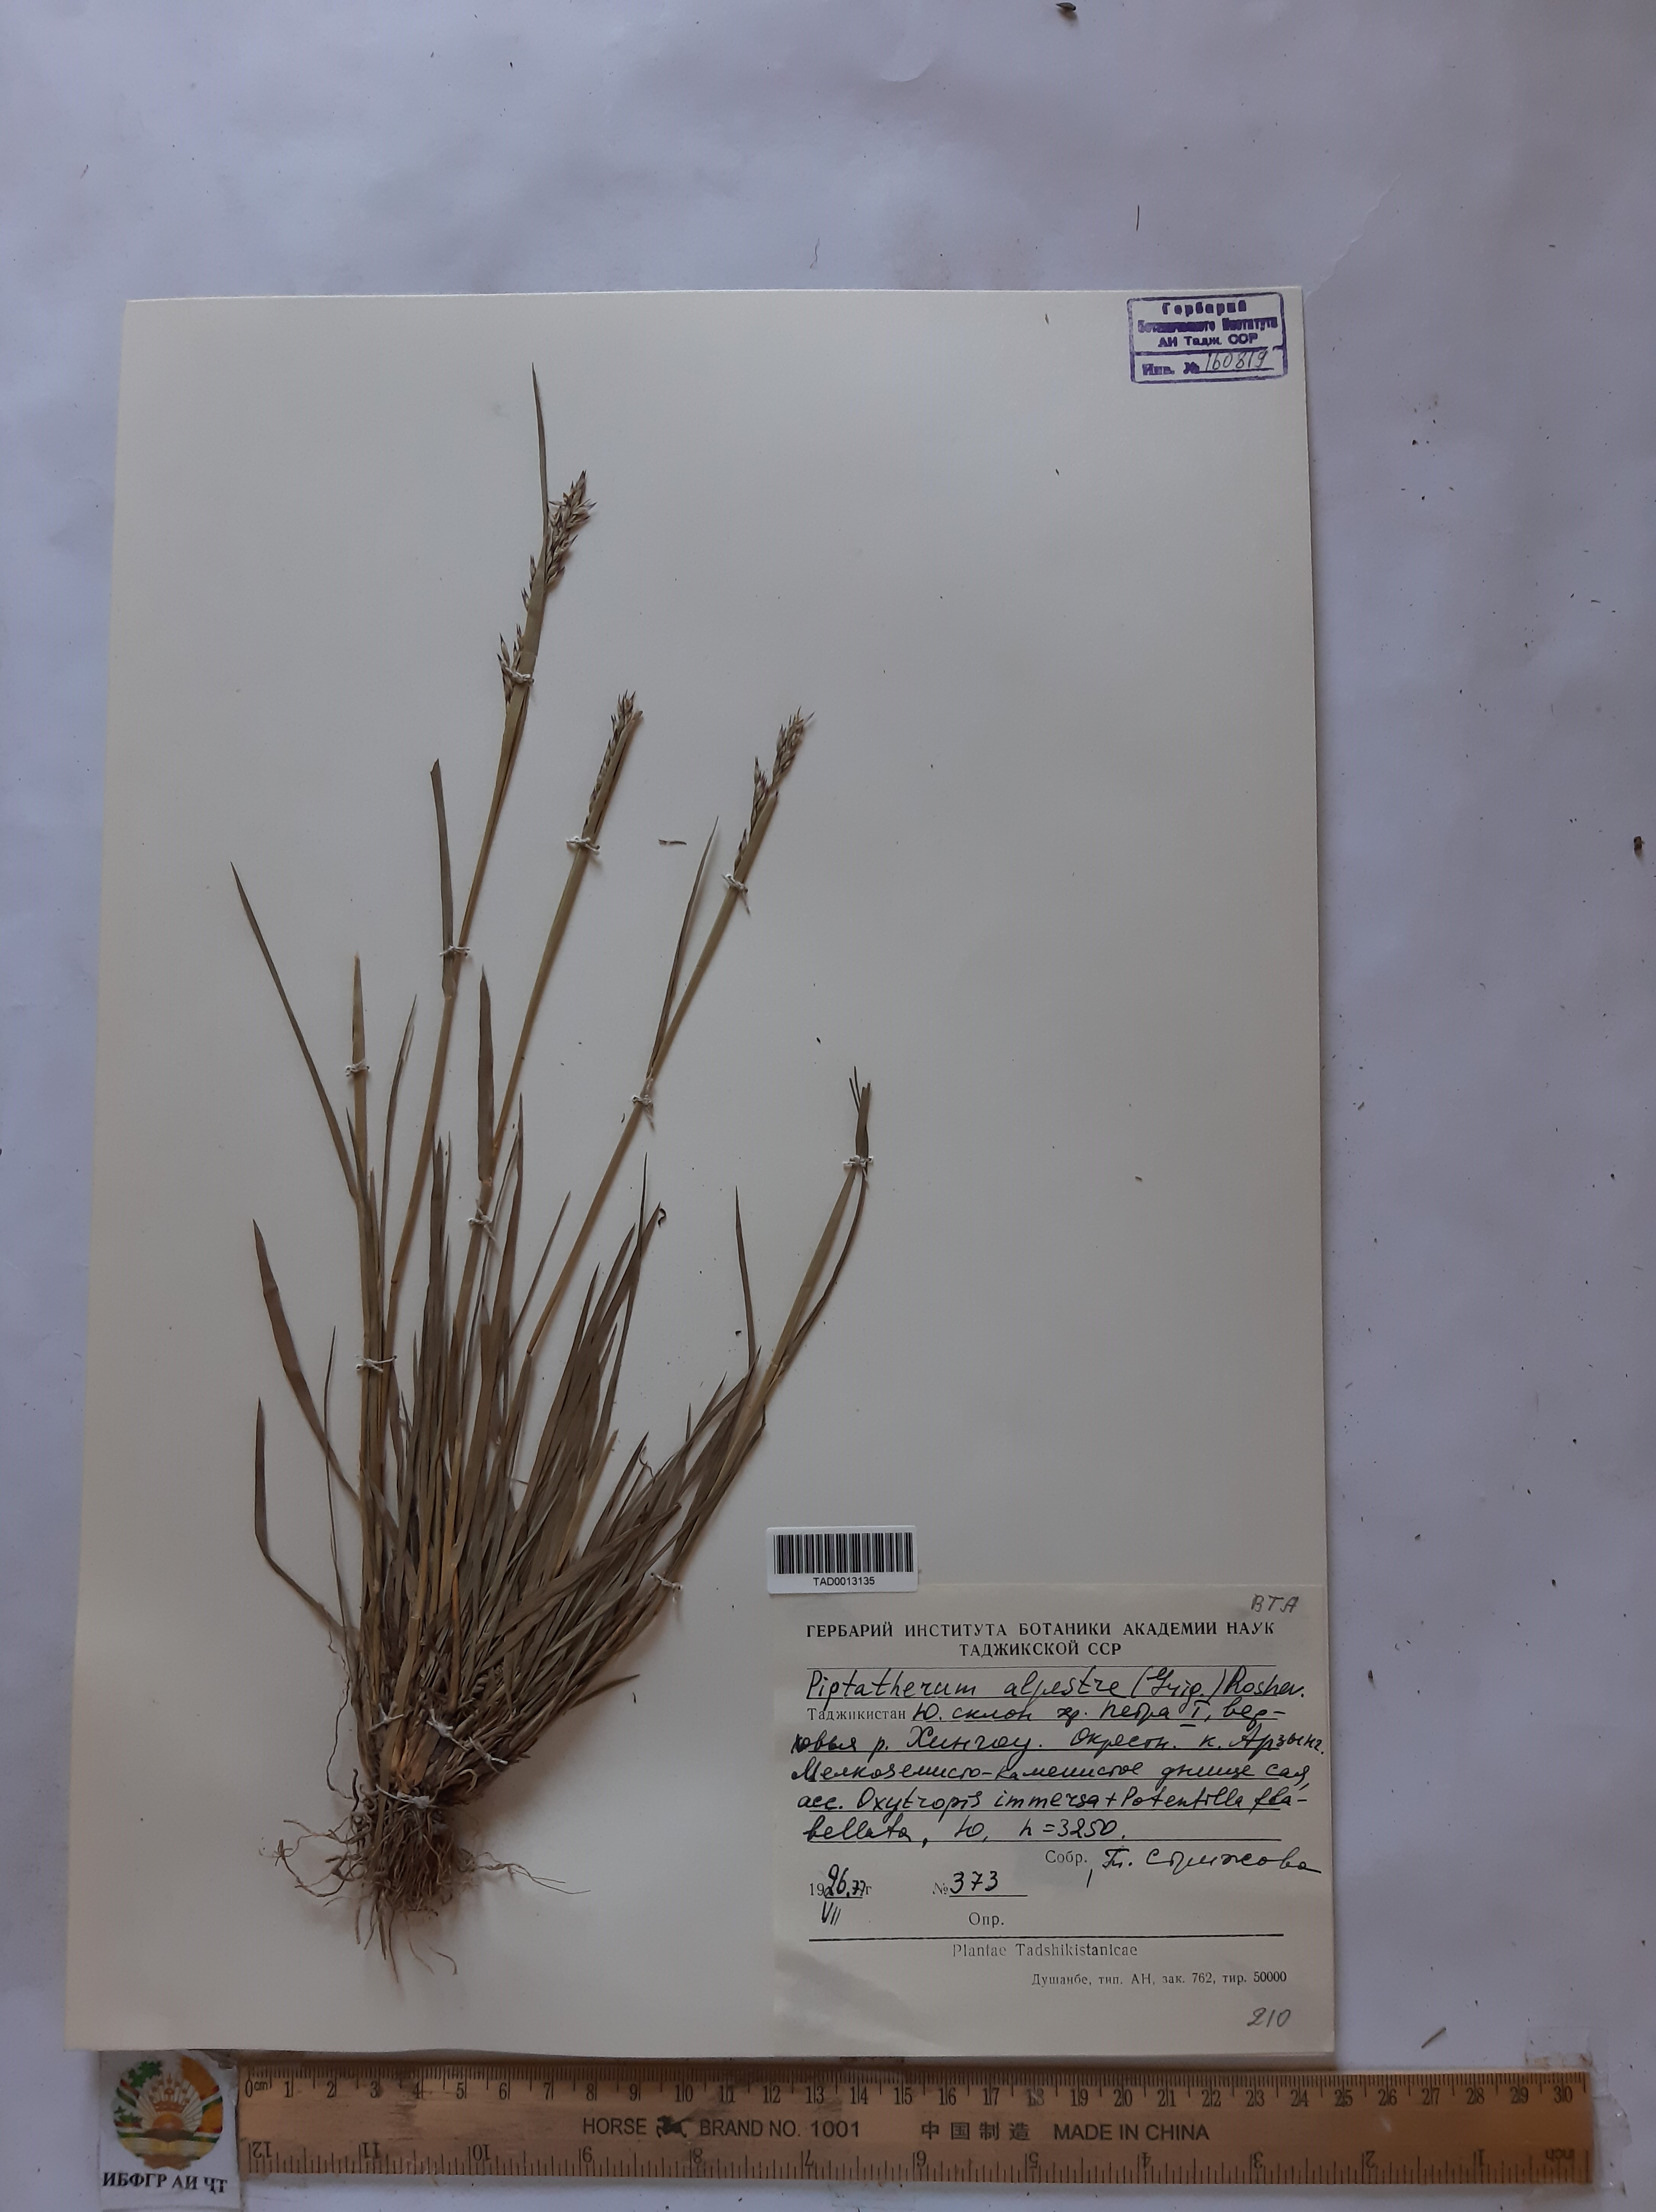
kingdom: Plantae
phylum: Tracheophyta
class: Liliopsida
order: Poales
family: Poaceae
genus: Piptatherum
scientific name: Piptatherum alpestre
